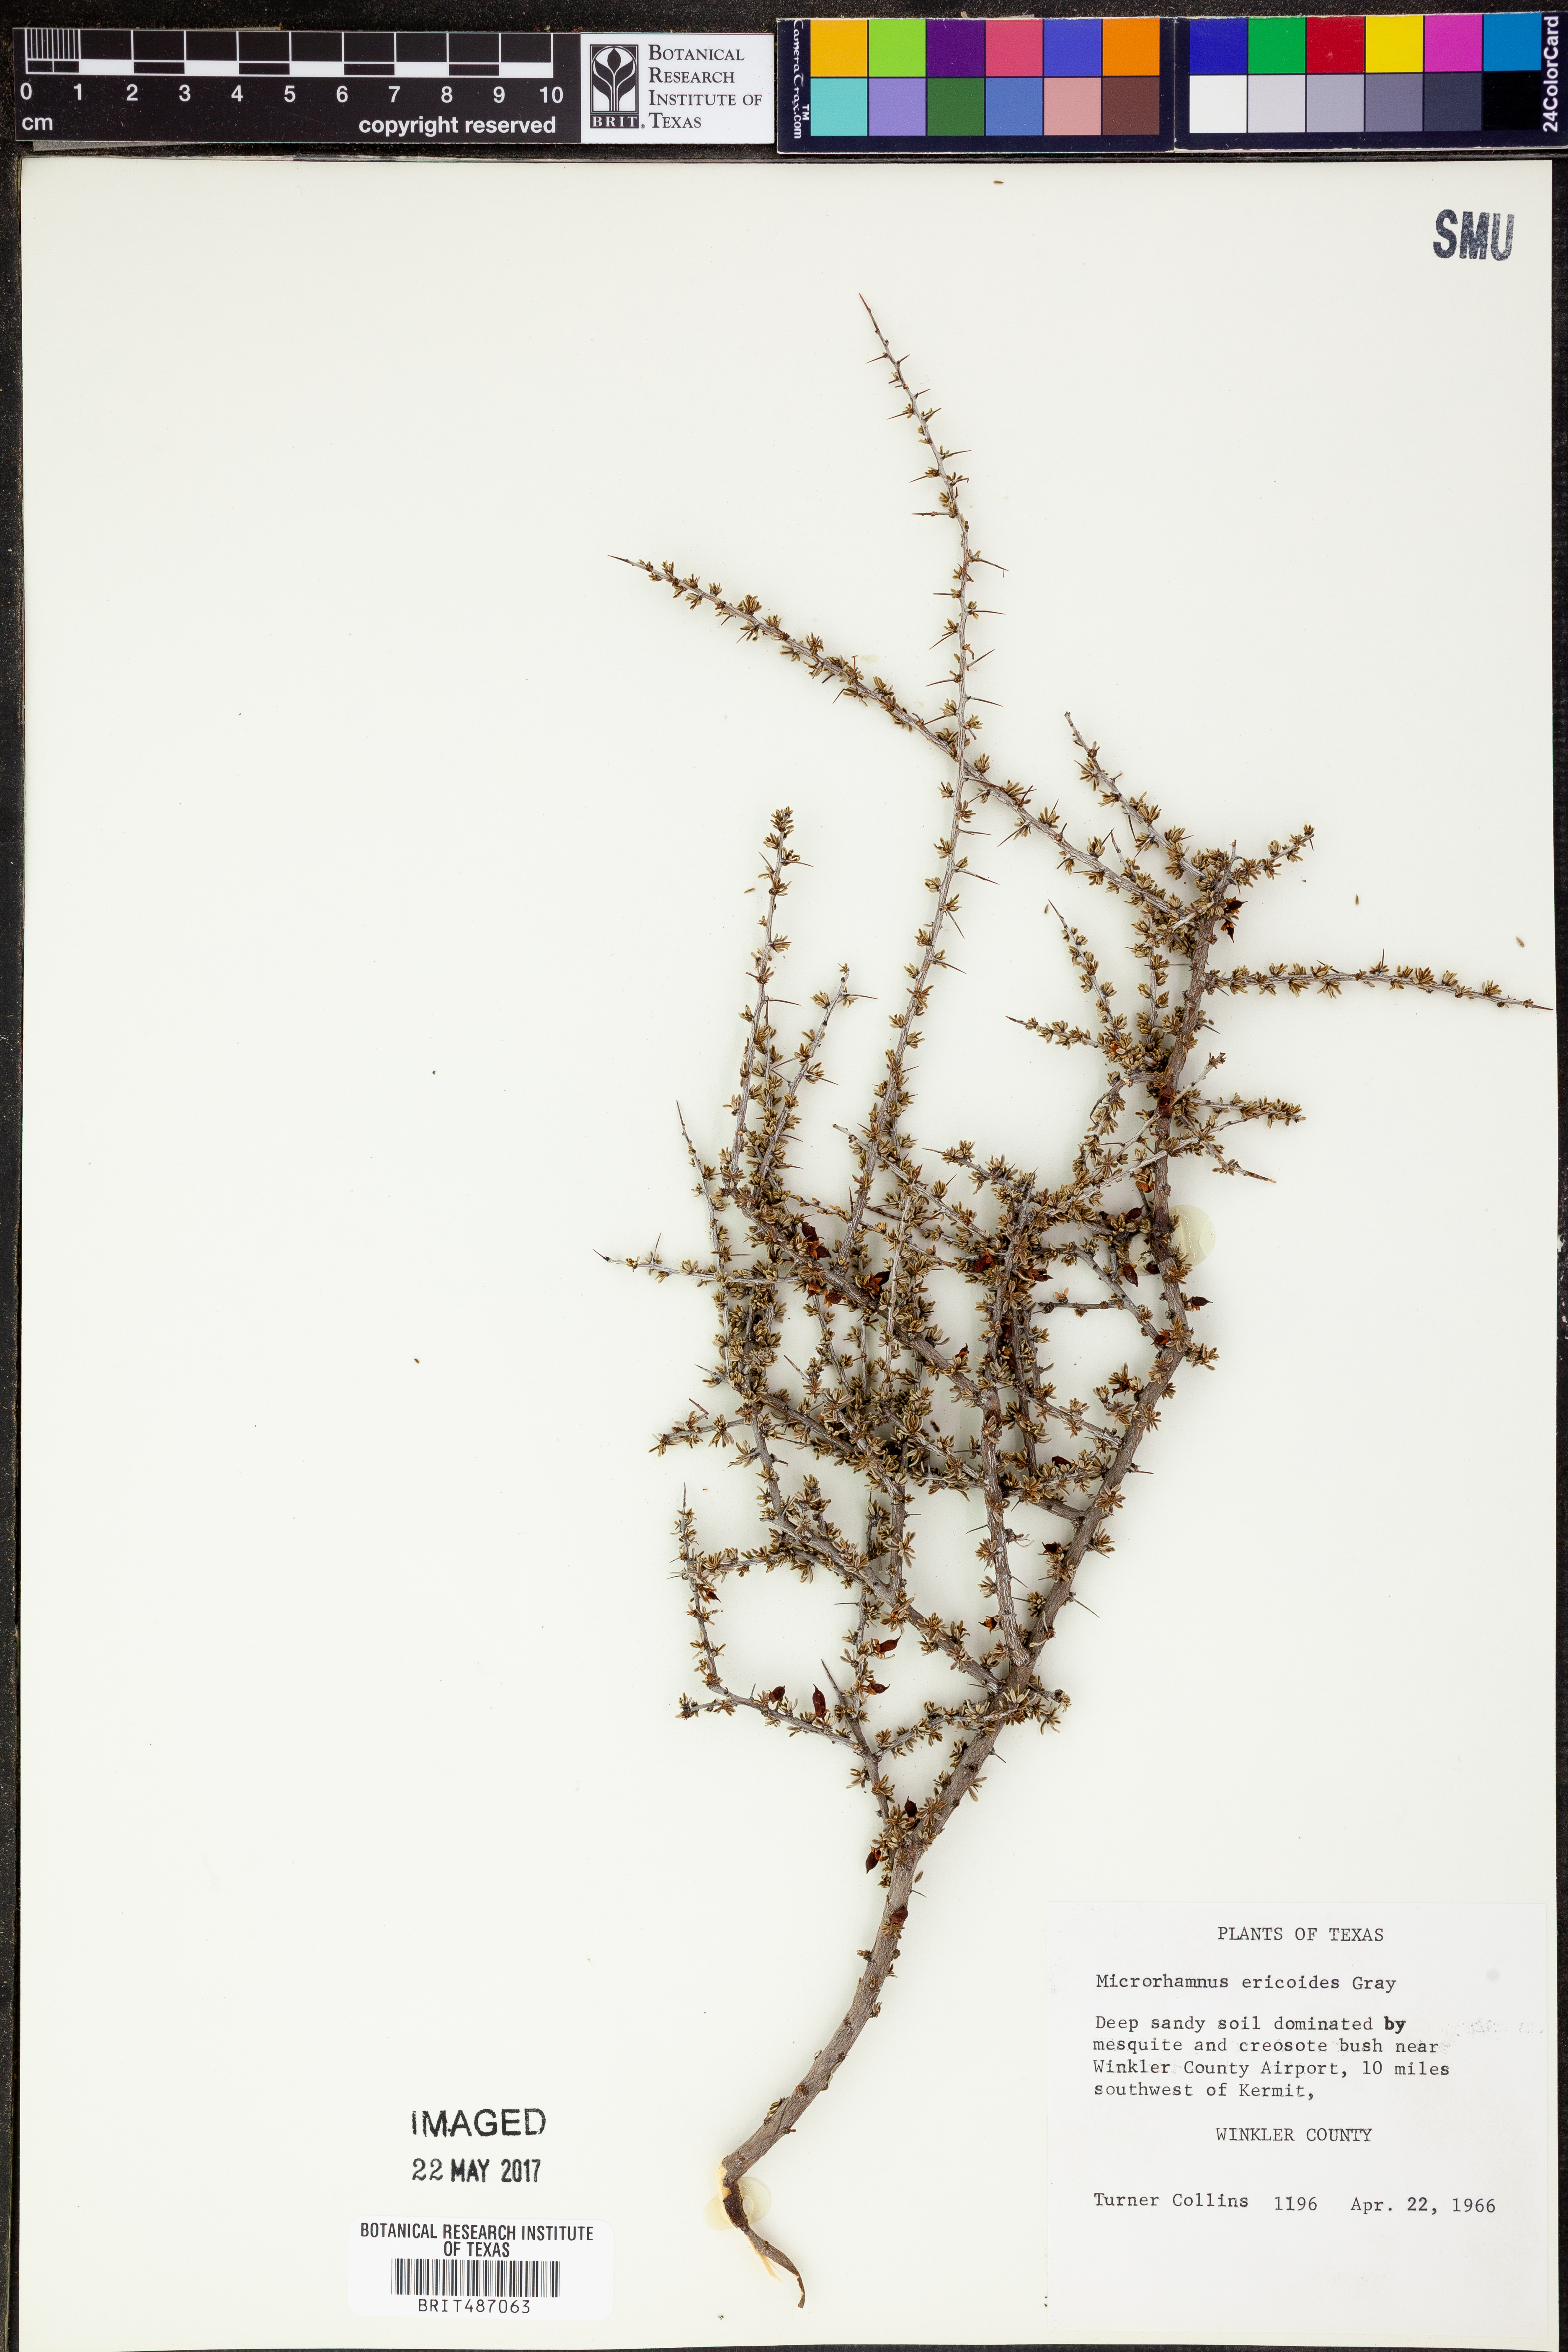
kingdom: Plantae
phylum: Tracheophyta
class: Magnoliopsida
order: Rosales
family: Rhamnaceae
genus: Condalia
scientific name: Condalia ericoides
